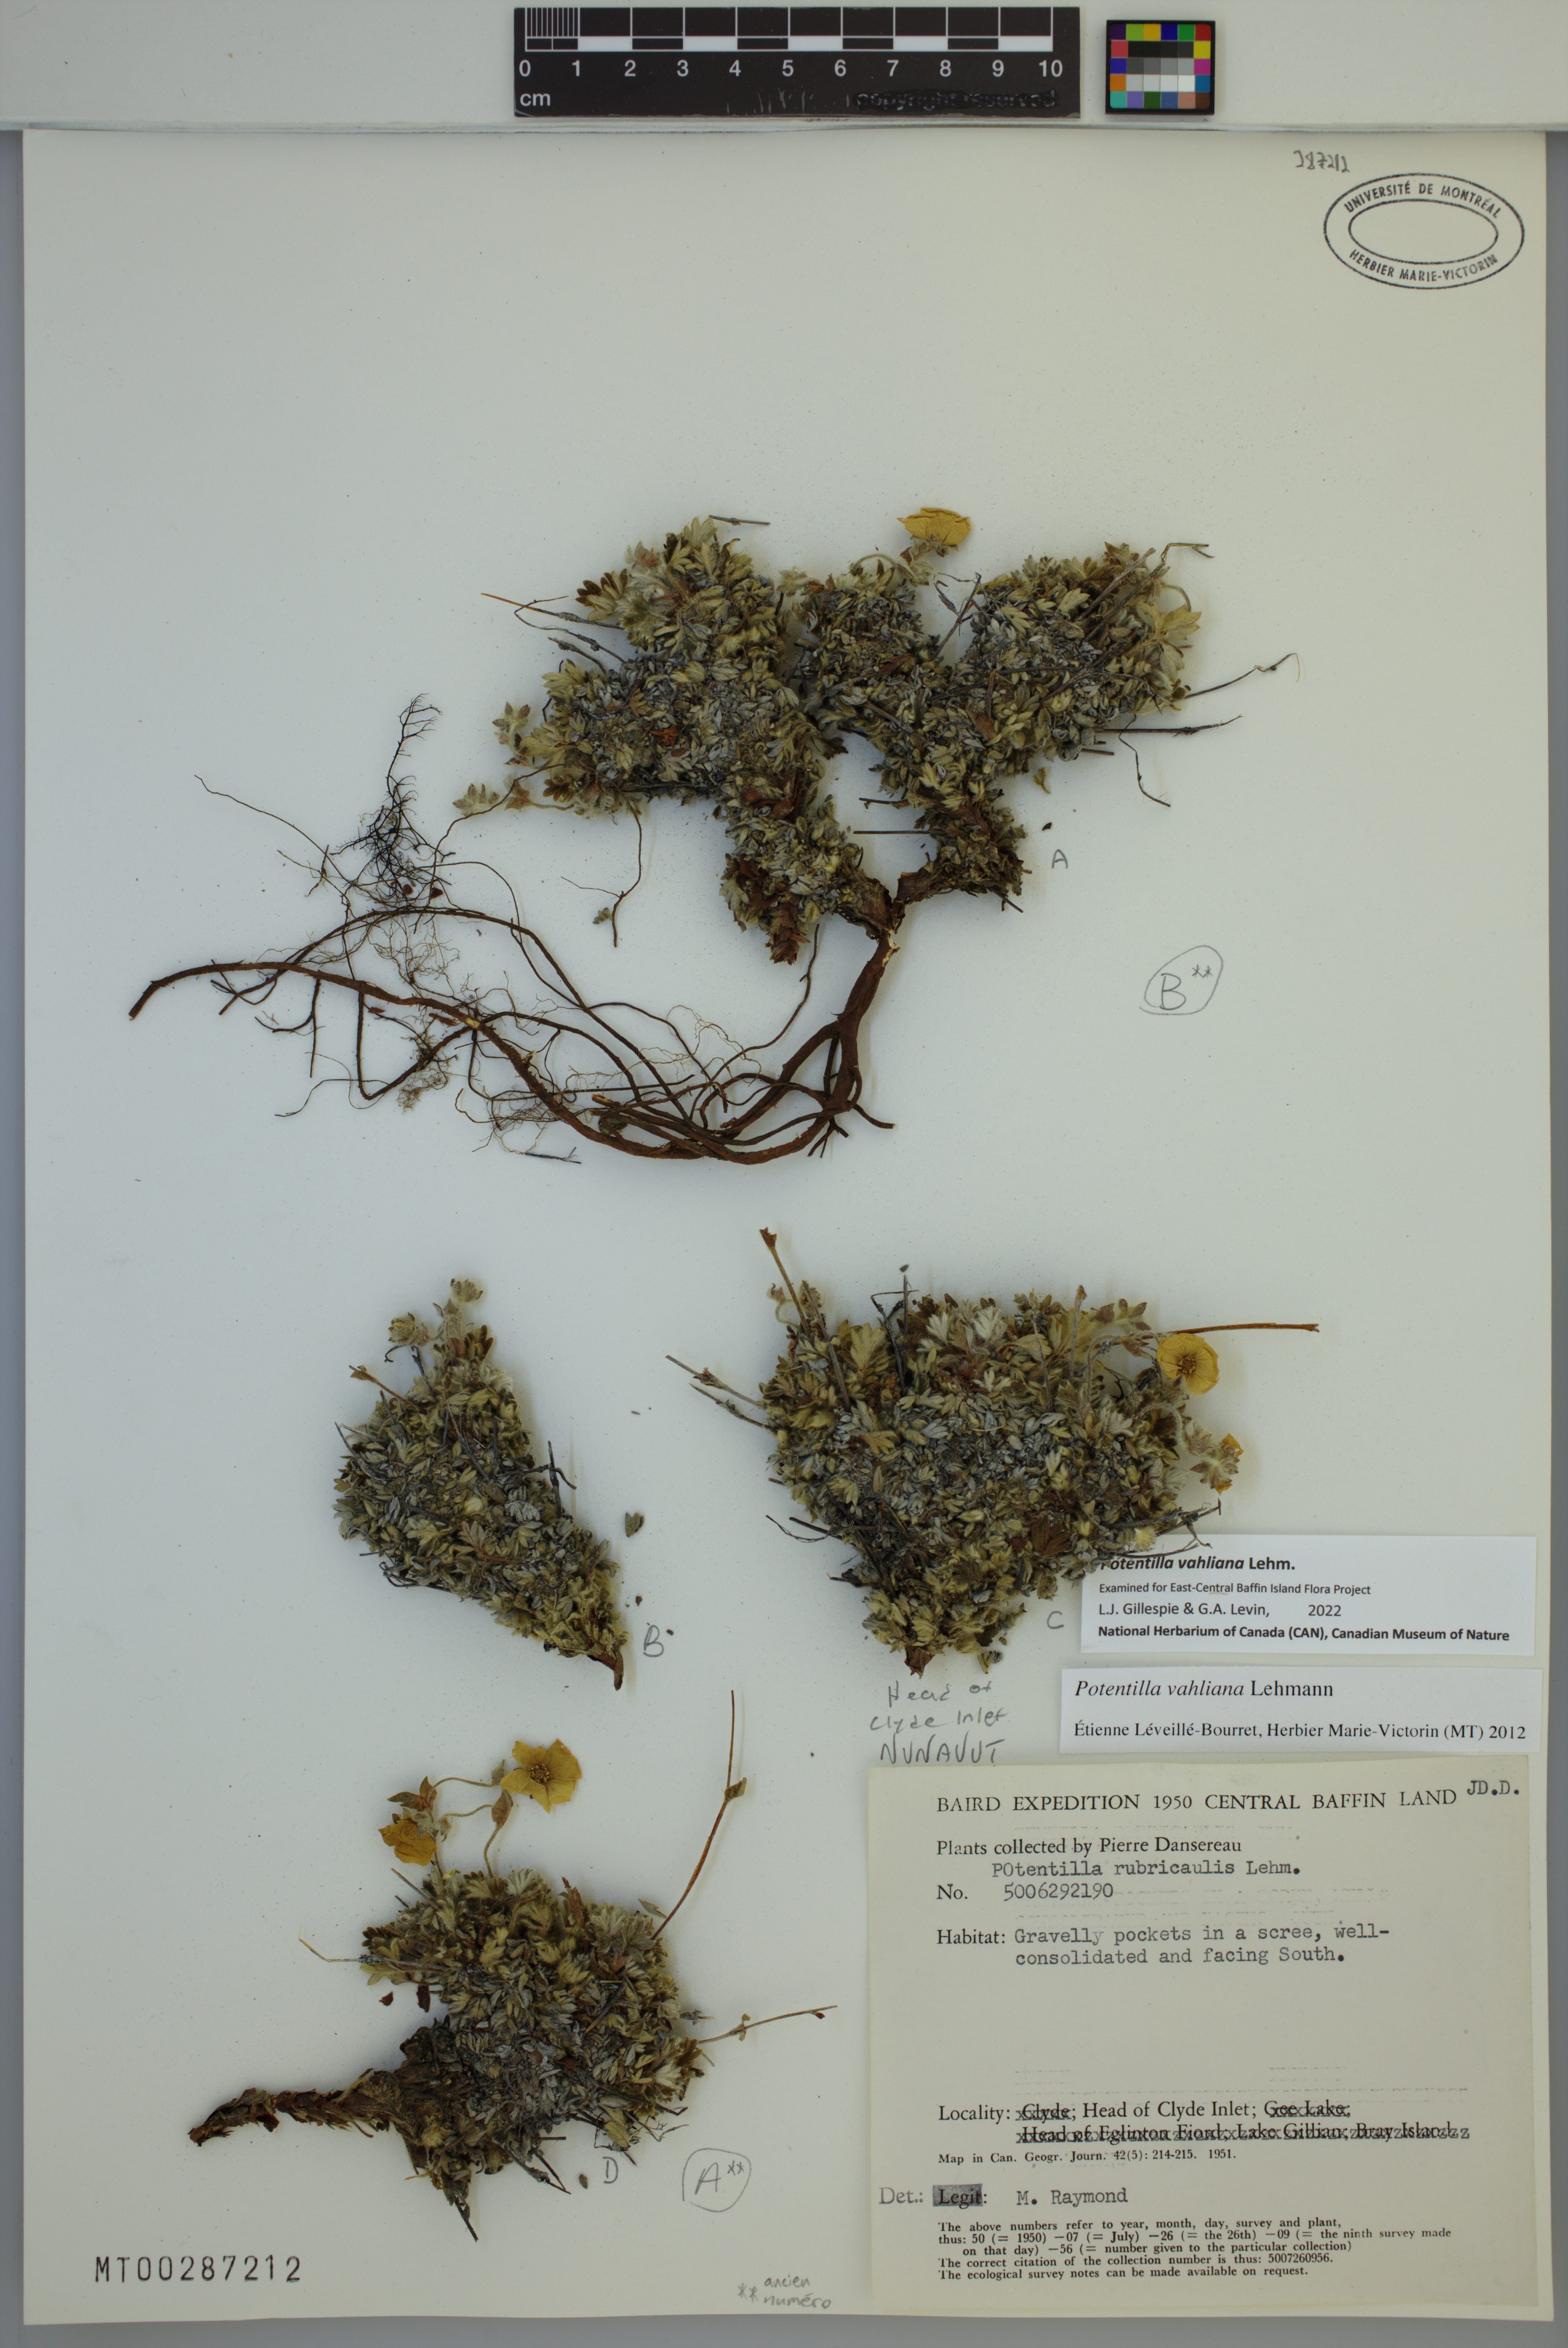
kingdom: Plantae
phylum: Tracheophyta
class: Magnoliopsida
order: Rosales
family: Rosaceae
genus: Potentilla
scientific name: Potentilla vahliana
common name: Vahl's cinquefoil
